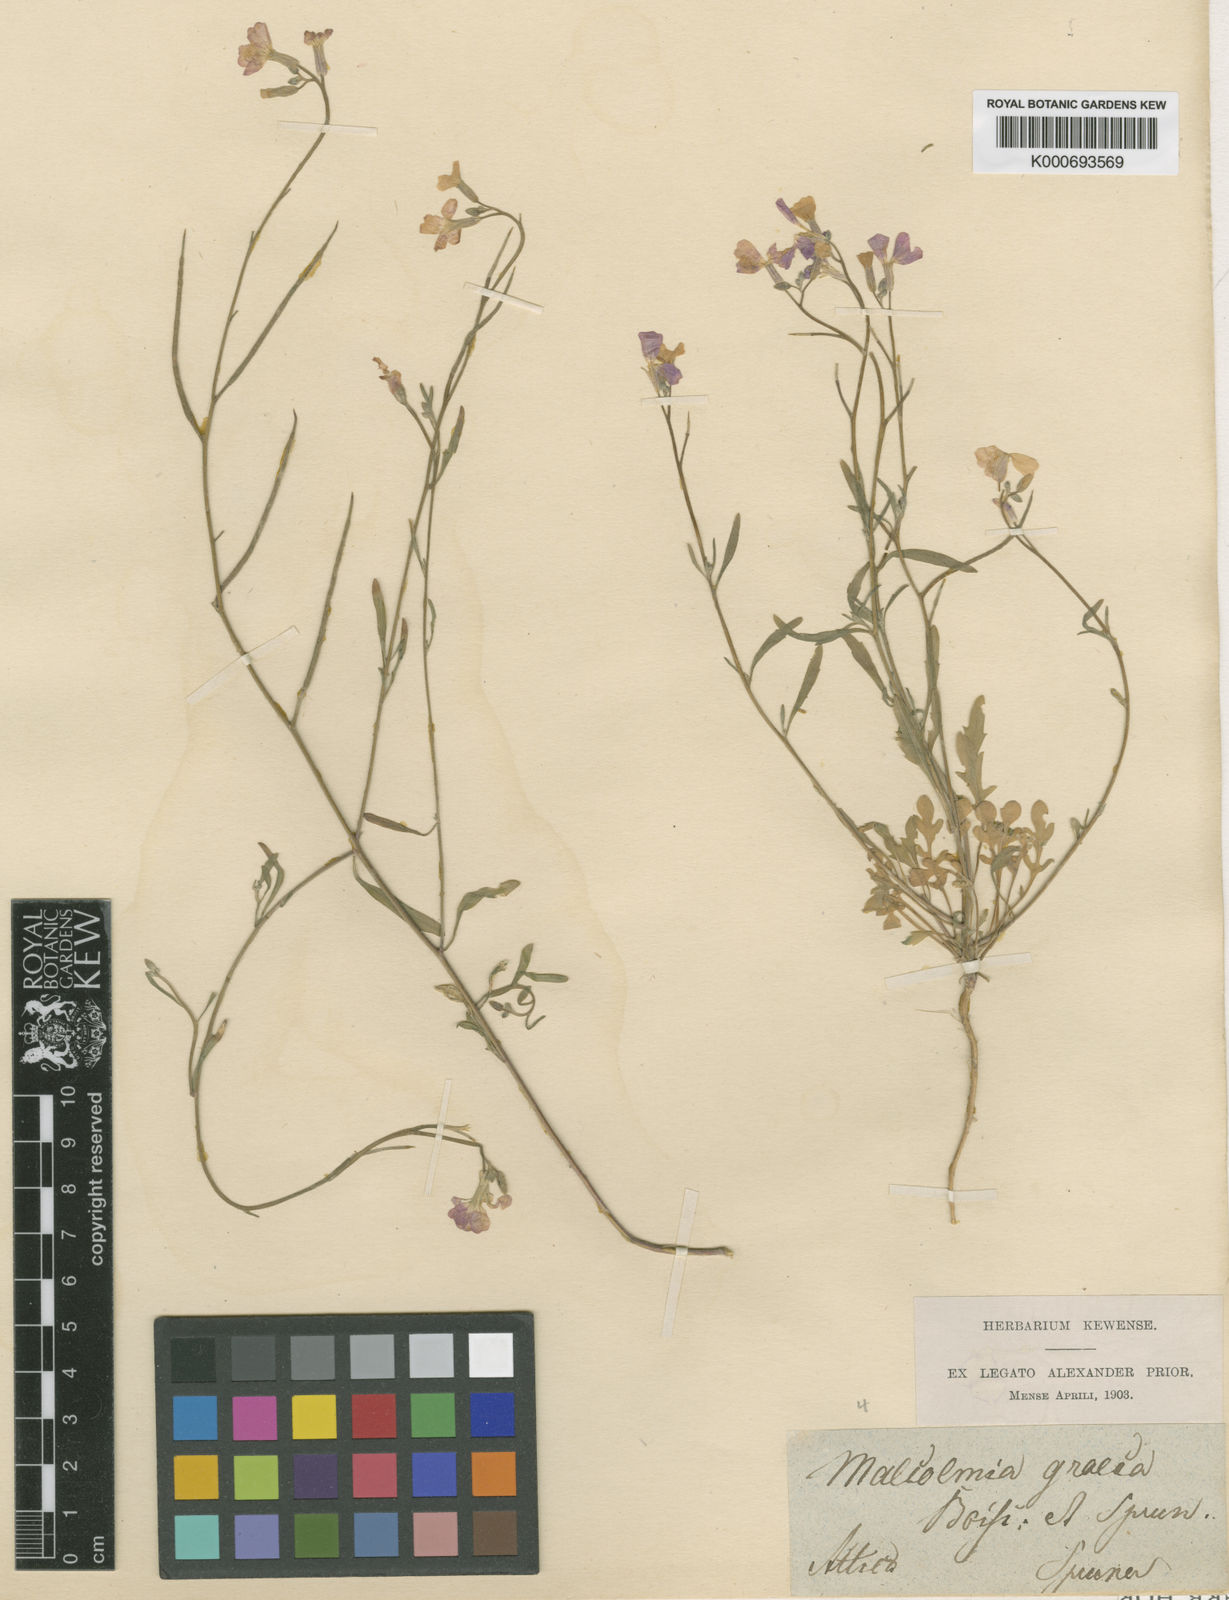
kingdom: Plantae
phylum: Tracheophyta
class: Magnoliopsida
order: Brassicales
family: Brassicaceae
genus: Malcolmia
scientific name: Malcolmia graeca
